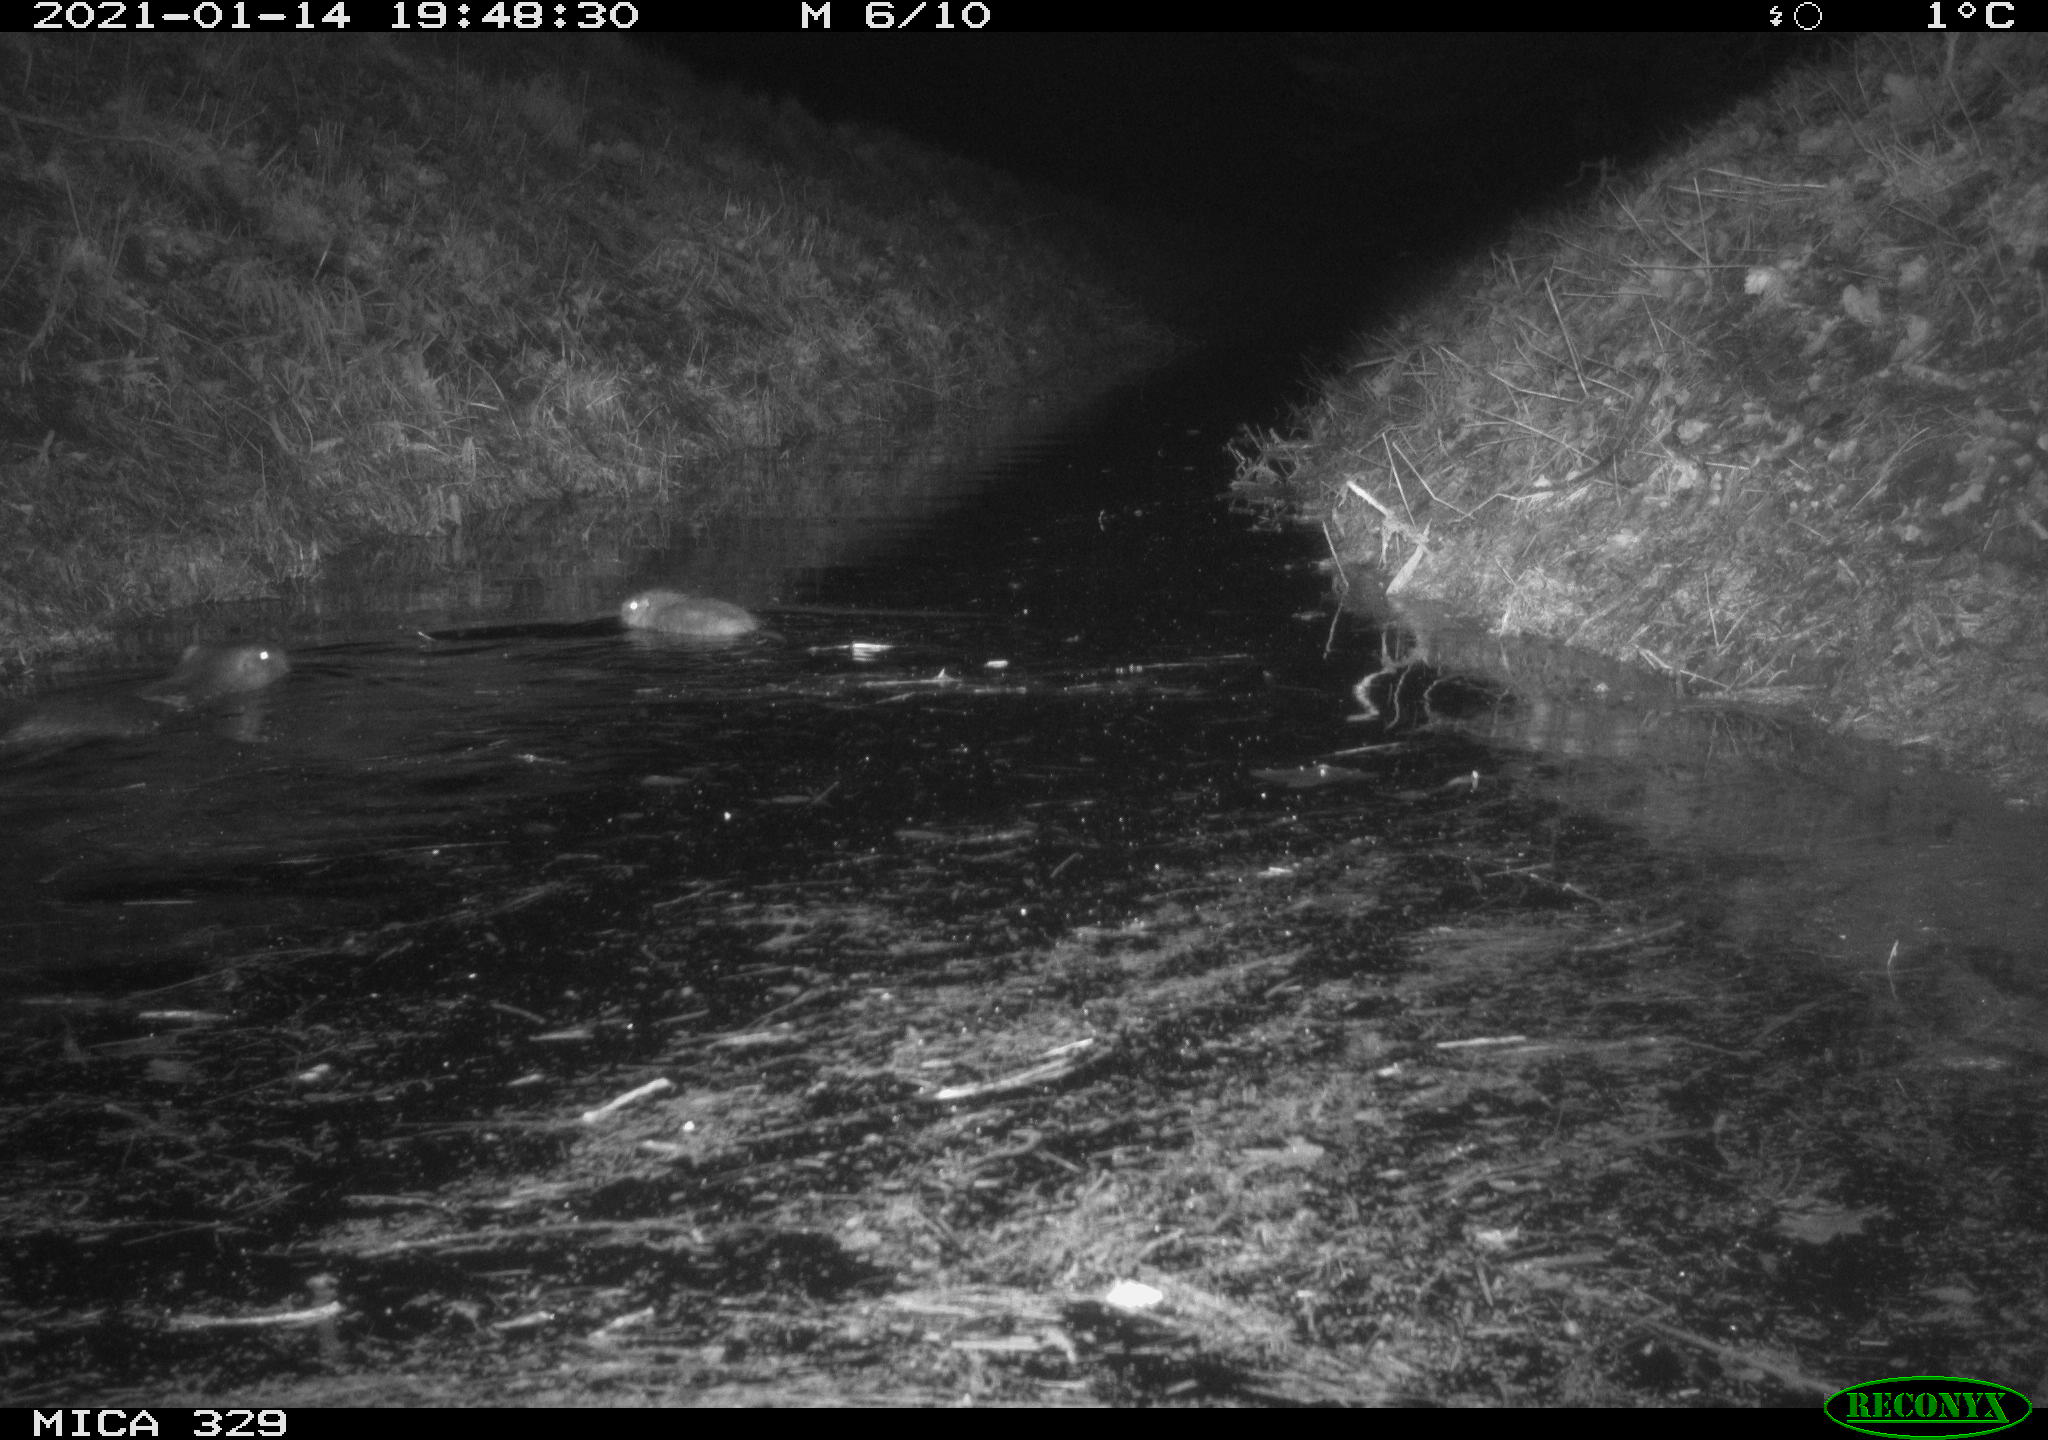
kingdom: Animalia
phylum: Chordata
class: Mammalia
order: Rodentia
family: Myocastoridae
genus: Myocastor
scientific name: Myocastor coypus
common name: Coypu
